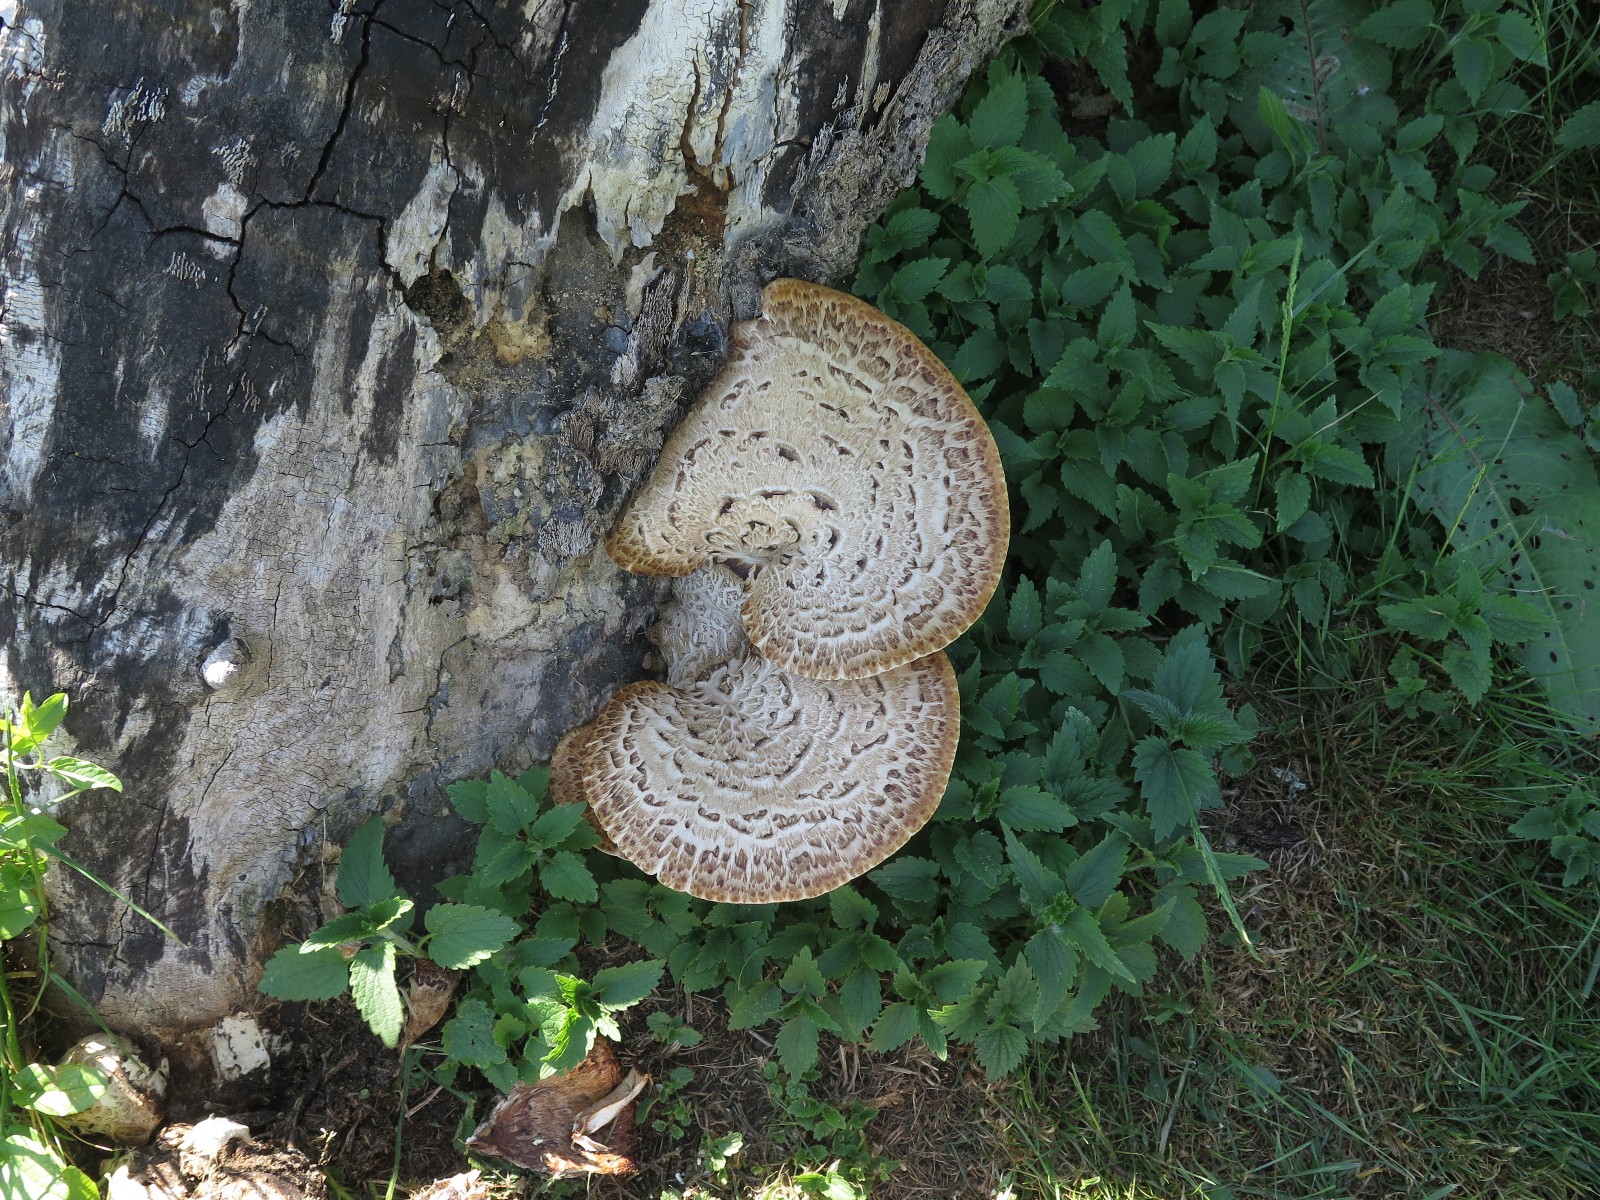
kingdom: Fungi
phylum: Basidiomycota
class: Agaricomycetes
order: Polyporales
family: Polyporaceae
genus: Cerioporus
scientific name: Cerioporus squamosus
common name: skællet stilkporesvamp
